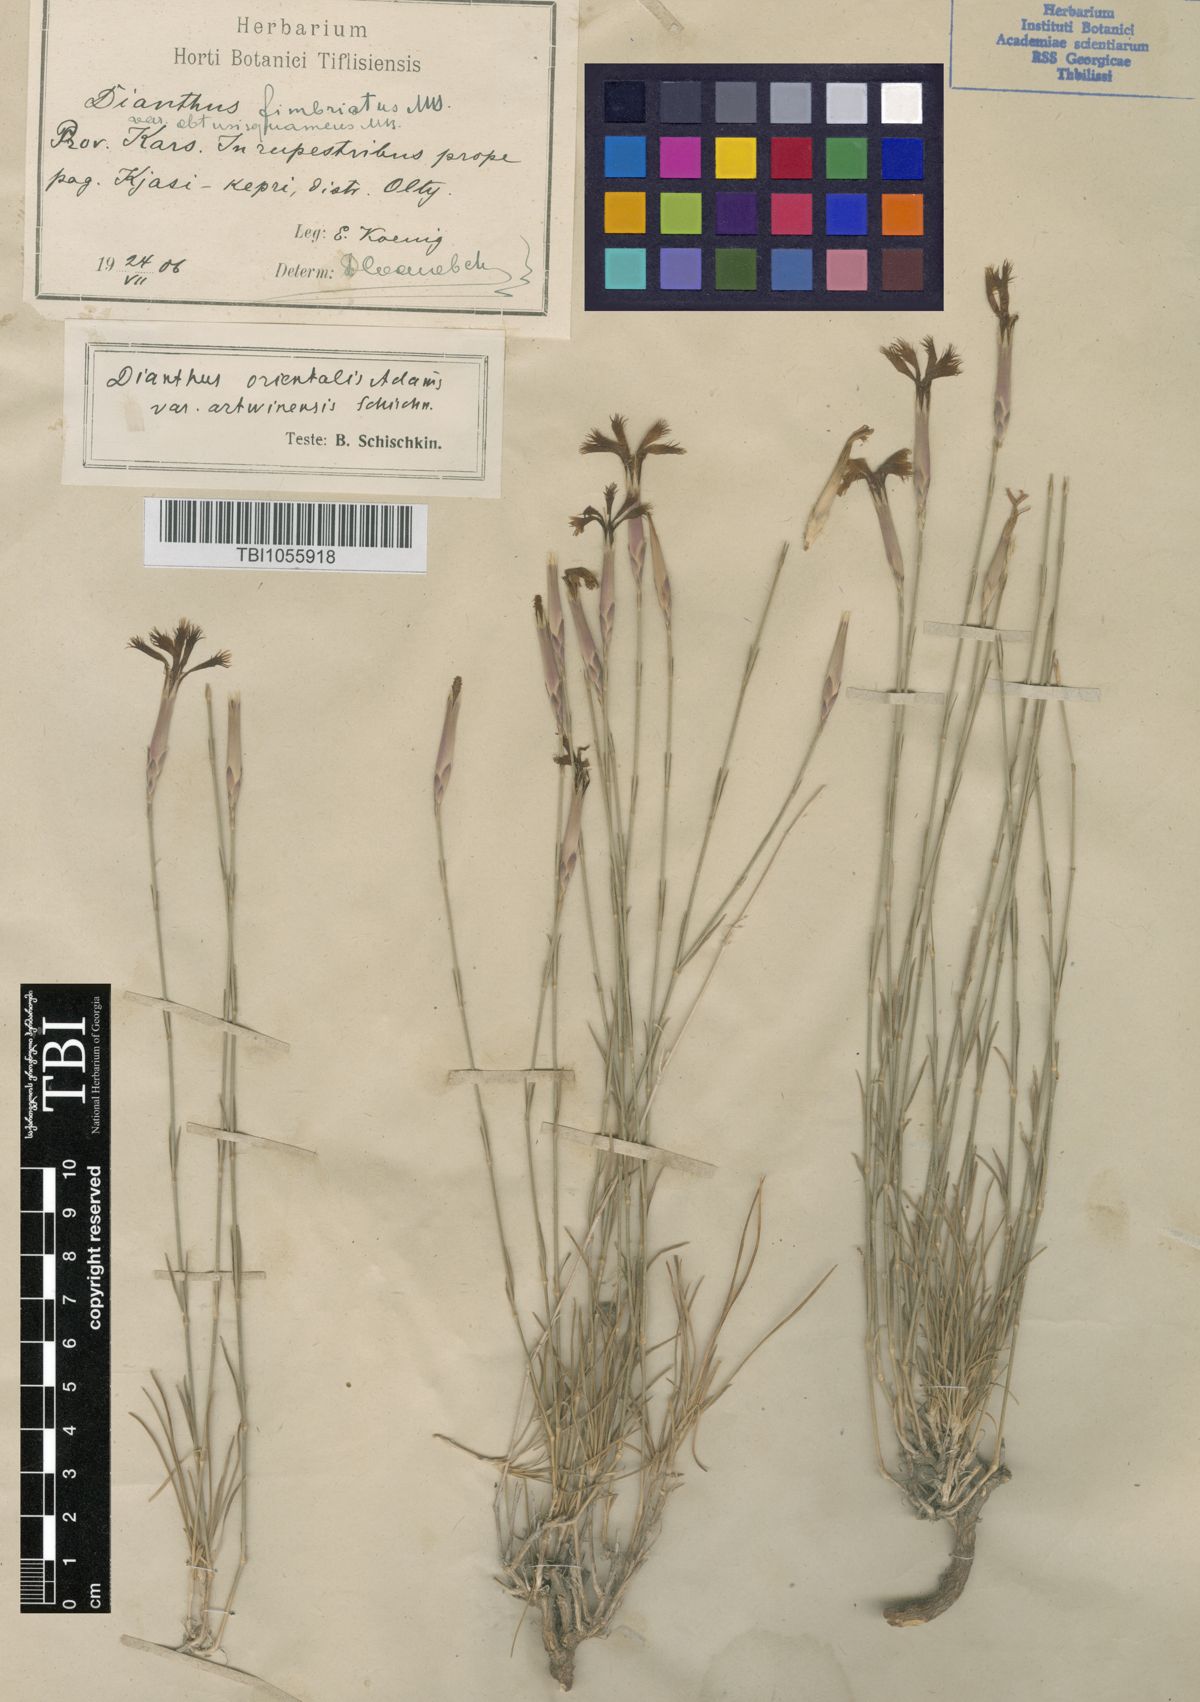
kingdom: Plantae
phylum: Tracheophyta
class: Magnoliopsida
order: Caryophyllales
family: Caryophyllaceae
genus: Dianthus
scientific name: Dianthus orientalis
